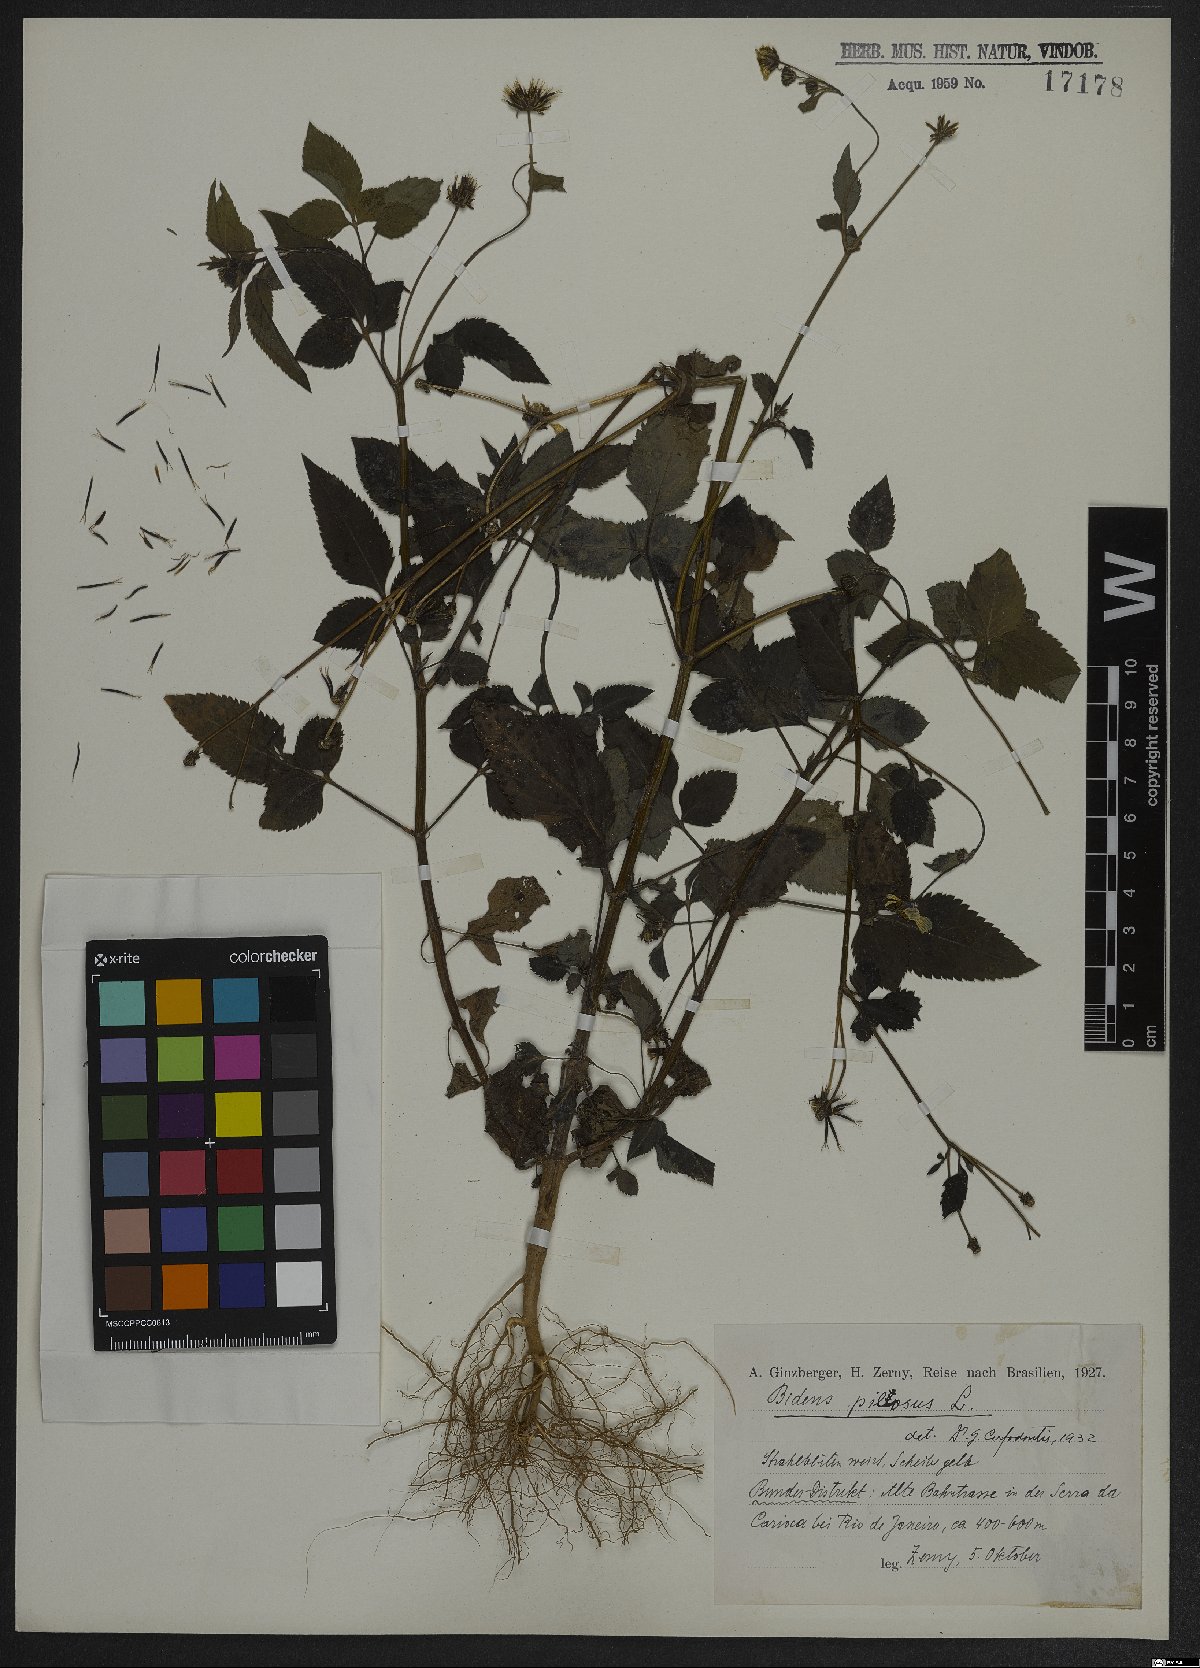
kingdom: Plantae
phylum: Tracheophyta
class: Magnoliopsida
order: Asterales
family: Asteraceae
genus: Bidens
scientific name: Bidens pilosa
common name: Black-jack
